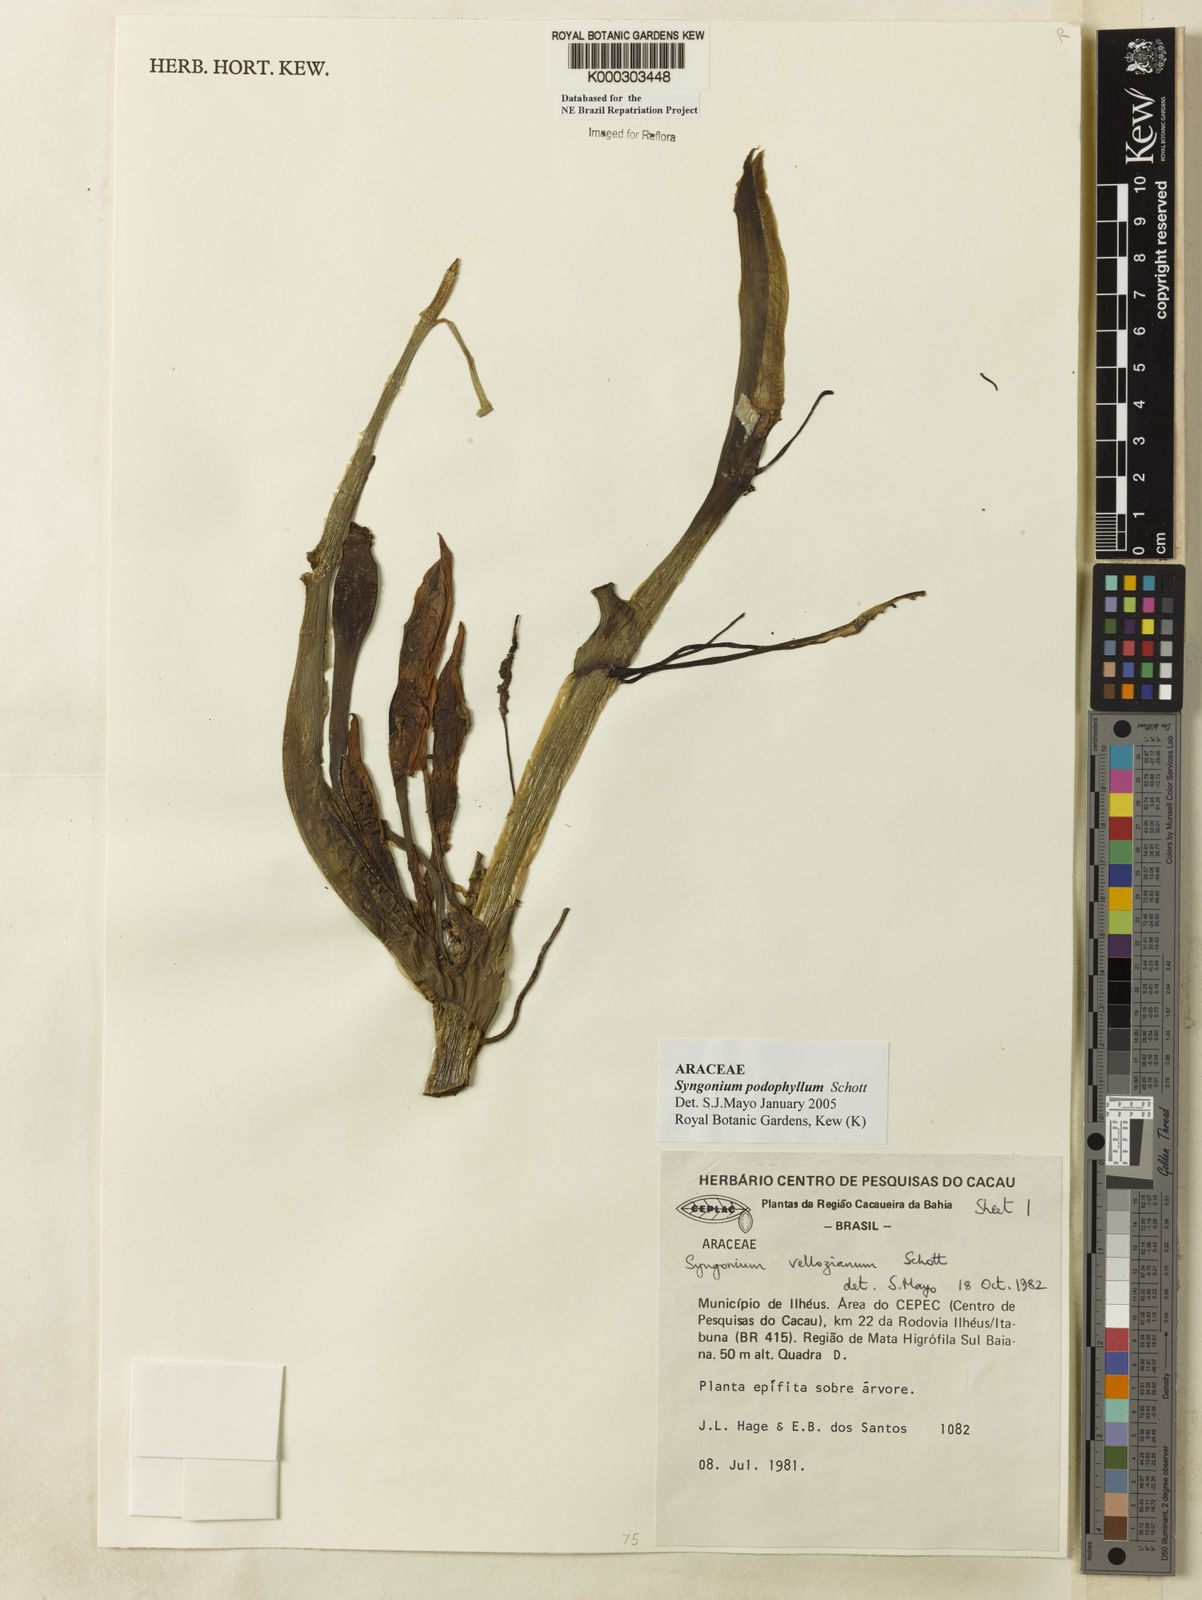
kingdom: Plantae
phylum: Tracheophyta
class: Liliopsida
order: Alismatales
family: Araceae
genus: Syngonium
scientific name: Syngonium podophyllum
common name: American evergreen
